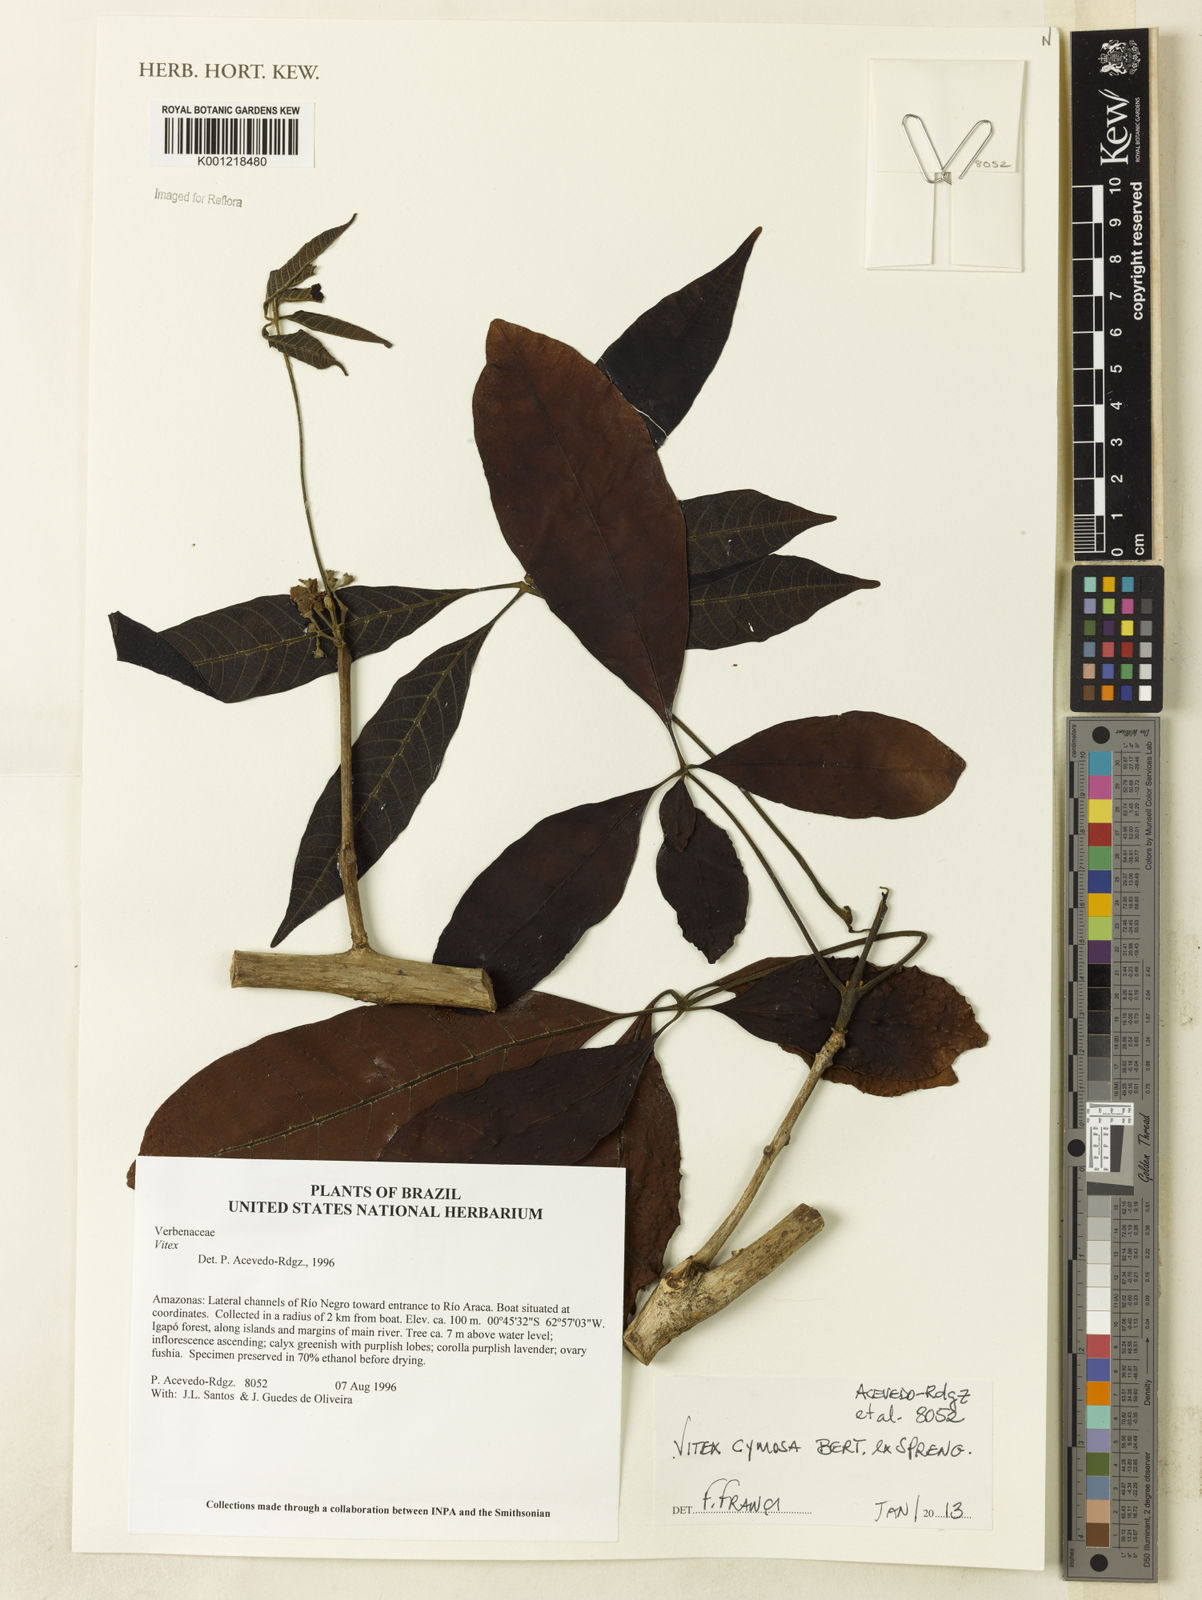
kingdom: Plantae
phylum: Tracheophyta
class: Magnoliopsida
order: Lamiales
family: Lamiaceae
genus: Vitex
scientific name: Vitex cymosa
